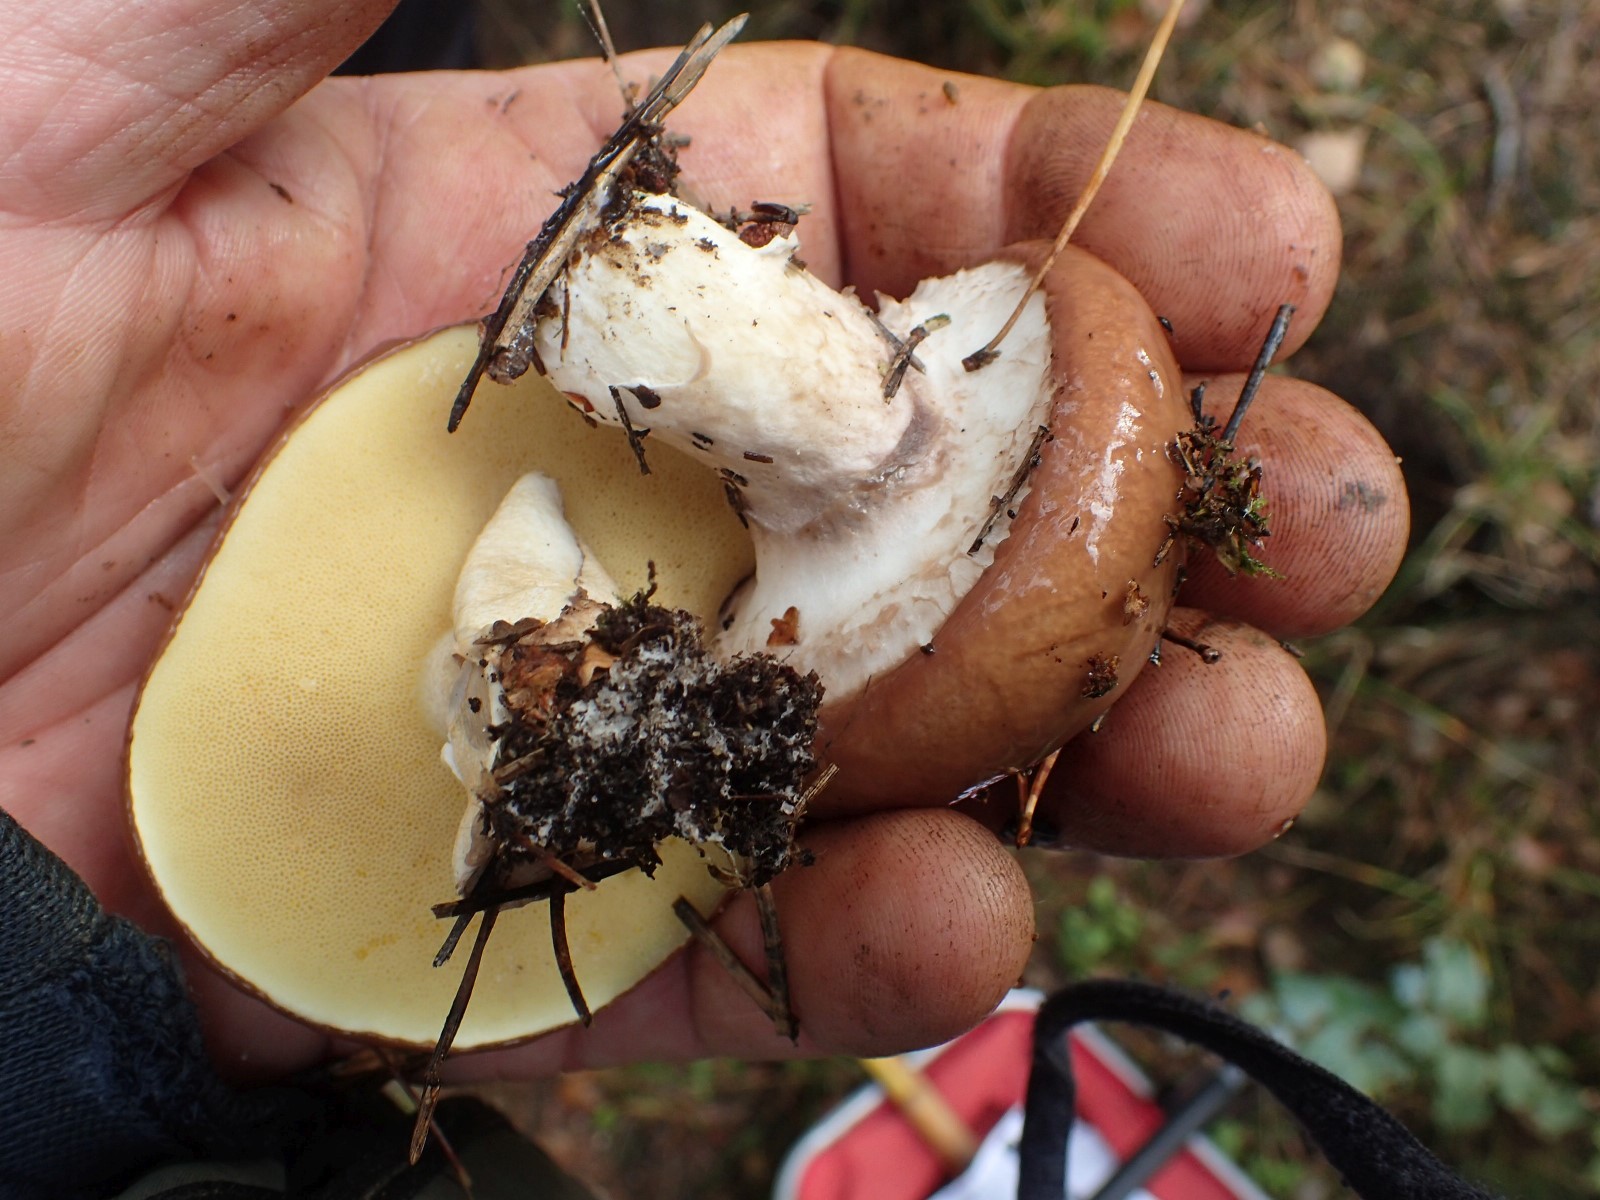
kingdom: Fungi
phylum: Basidiomycota
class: Agaricomycetes
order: Boletales
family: Suillaceae
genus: Suillus
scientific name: Suillus luteus
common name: brungul slimrørhat
